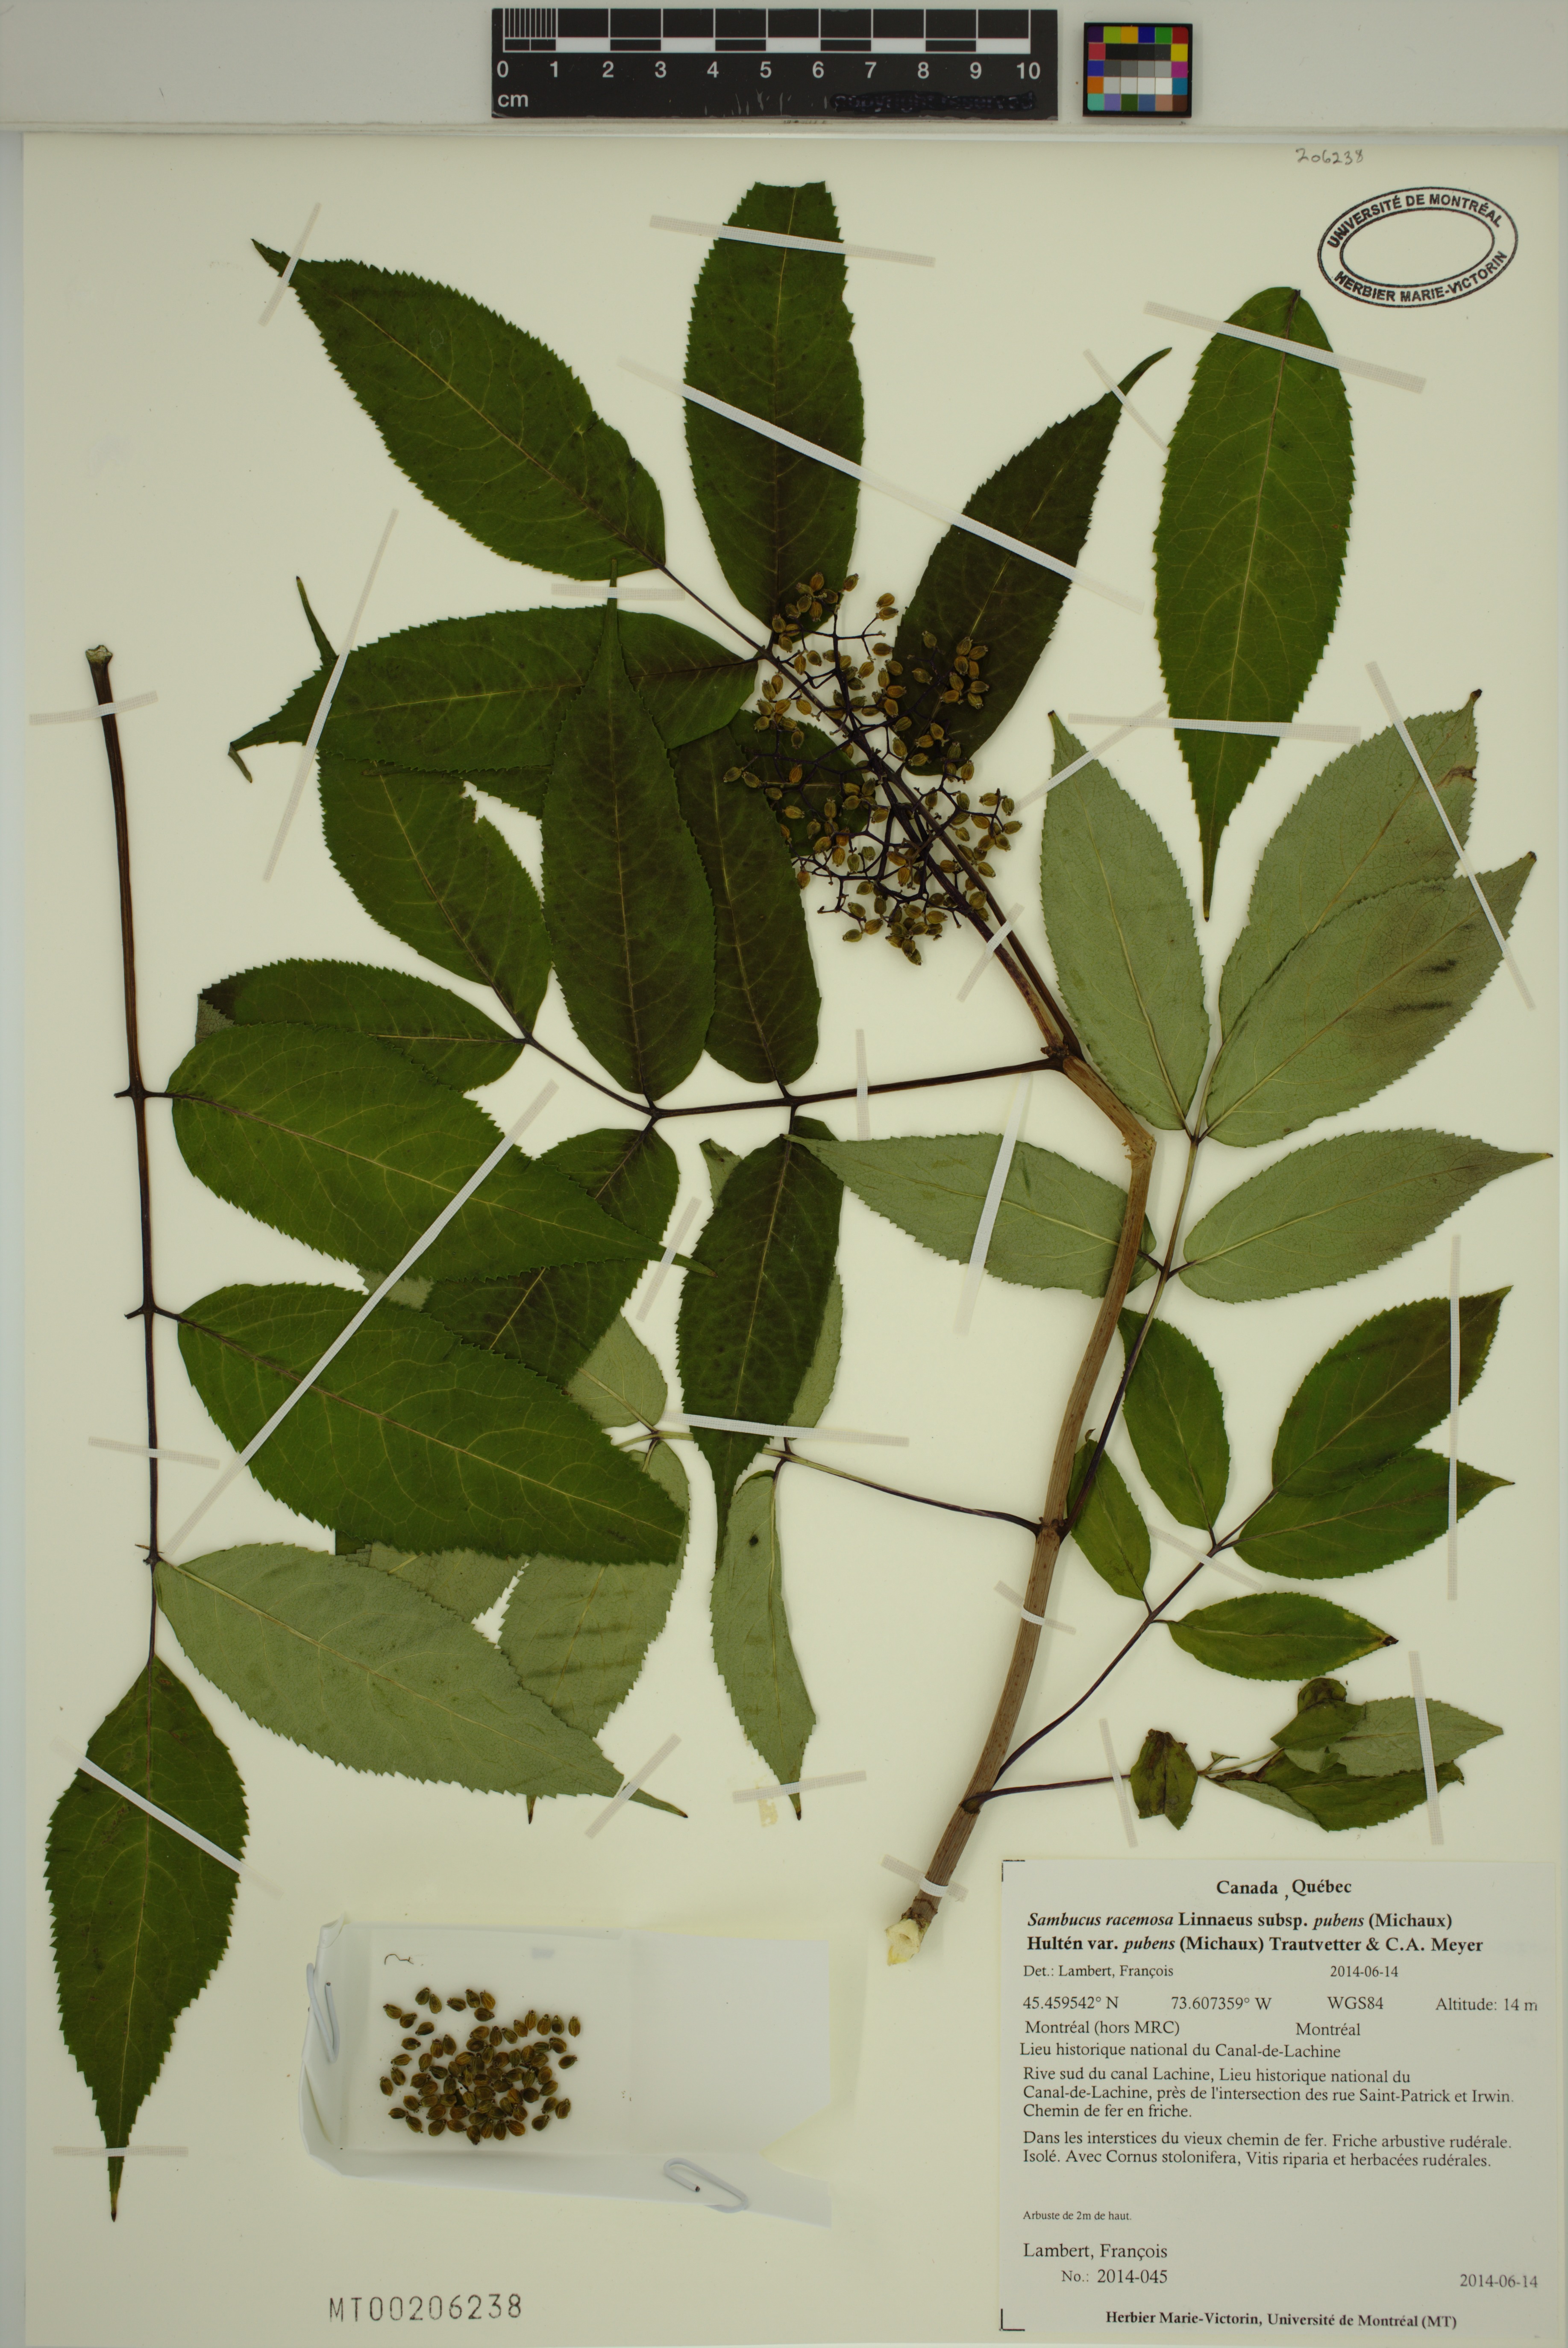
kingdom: Plantae
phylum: Tracheophyta
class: Magnoliopsida
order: Dipsacales
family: Viburnaceae
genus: Sambucus
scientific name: Sambucus racemosa
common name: Red-berried elder
